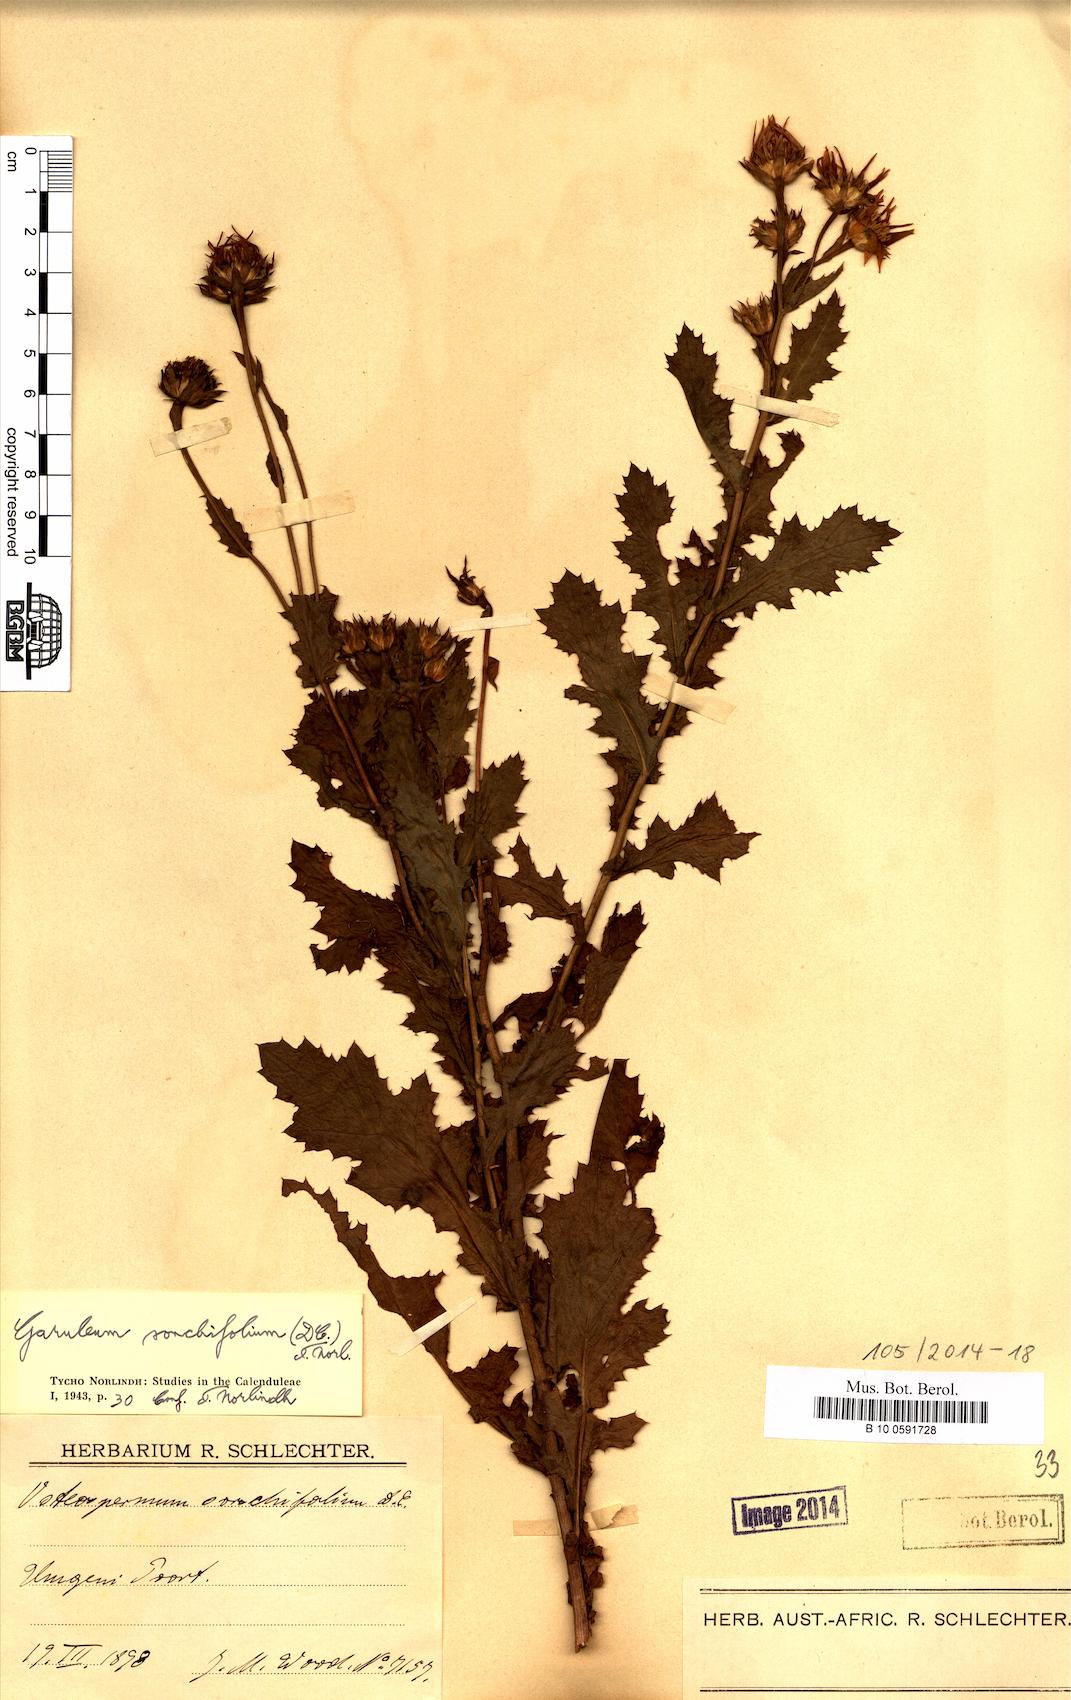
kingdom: Plantae
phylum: Tracheophyta
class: Magnoliopsida
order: Asterales
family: Asteraceae
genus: Garuleum
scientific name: Garuleum sonchifolium
